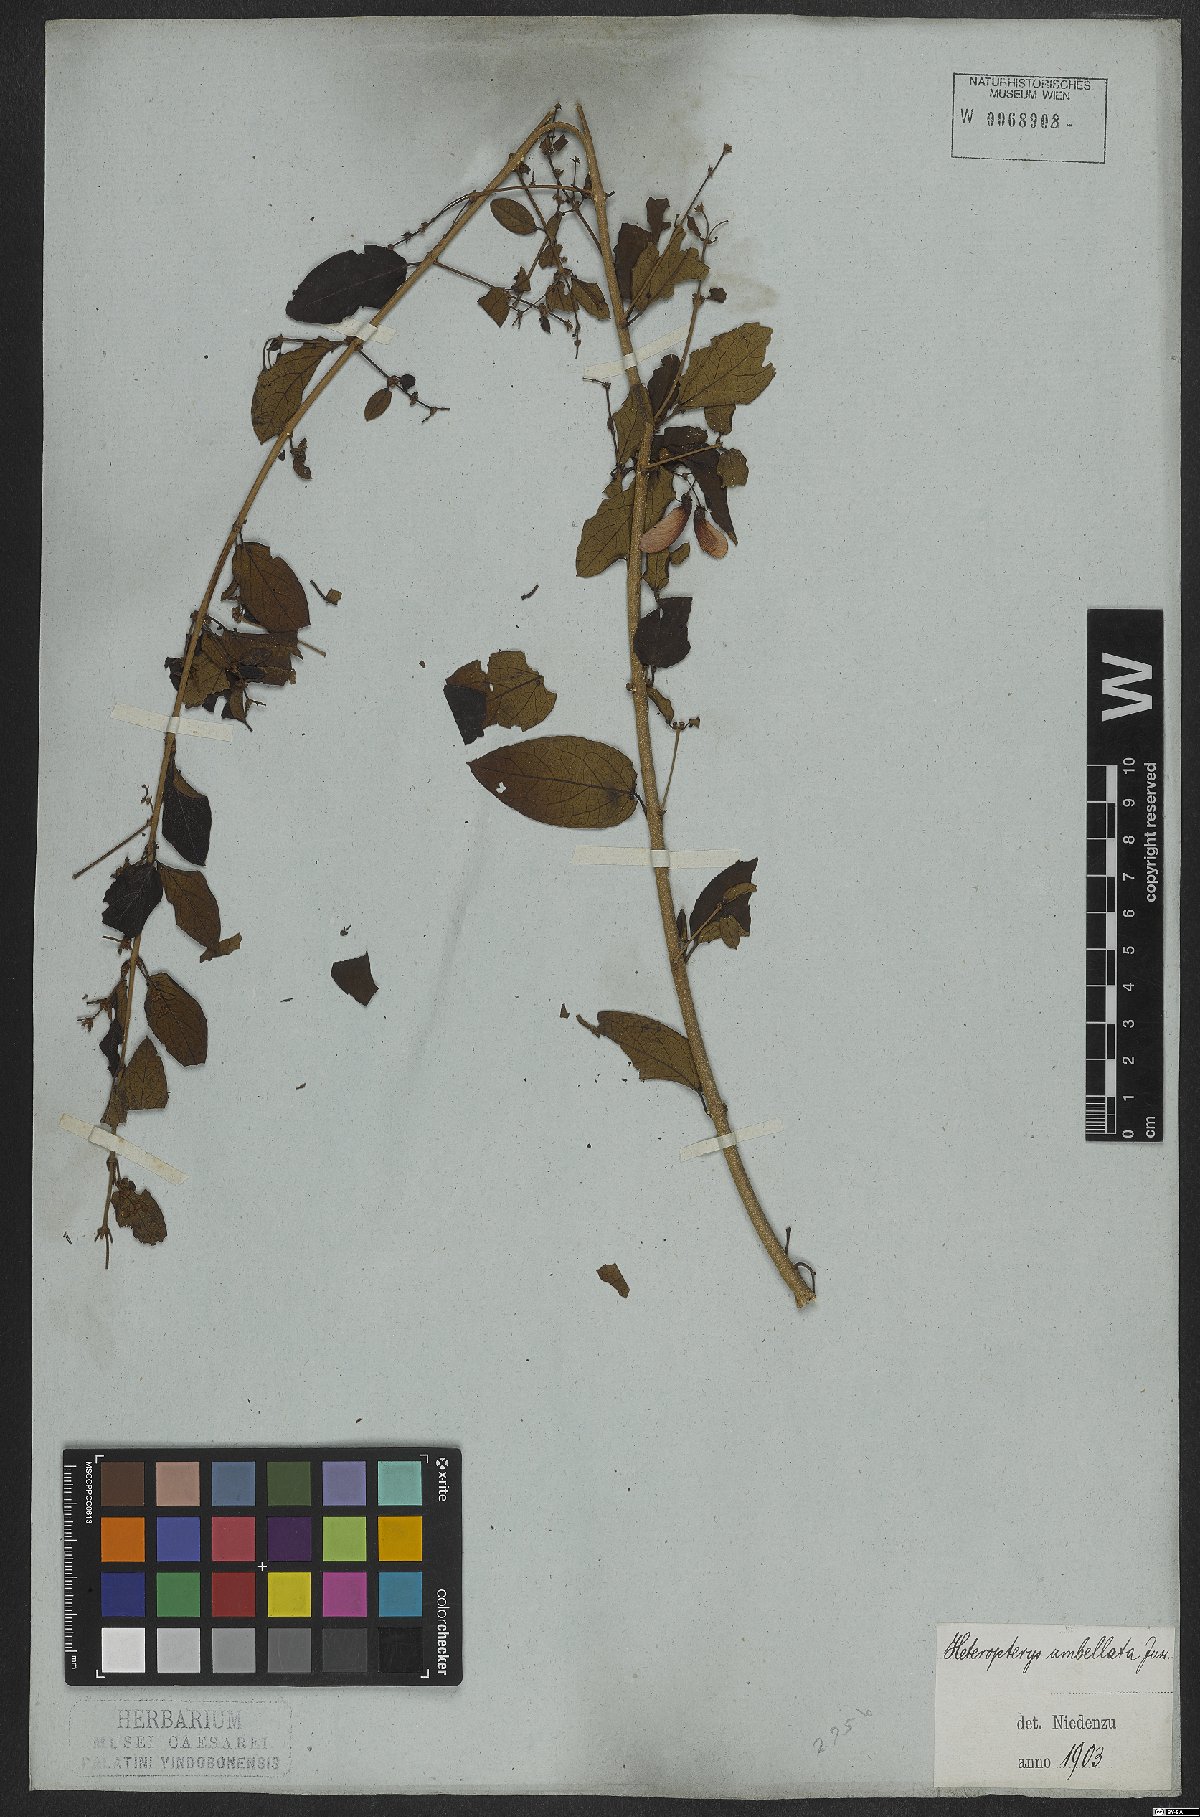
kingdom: Plantae
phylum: Tracheophyta
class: Magnoliopsida
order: Malpighiales
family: Malpighiaceae
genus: Heteropterys
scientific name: Heteropterys umbellata
